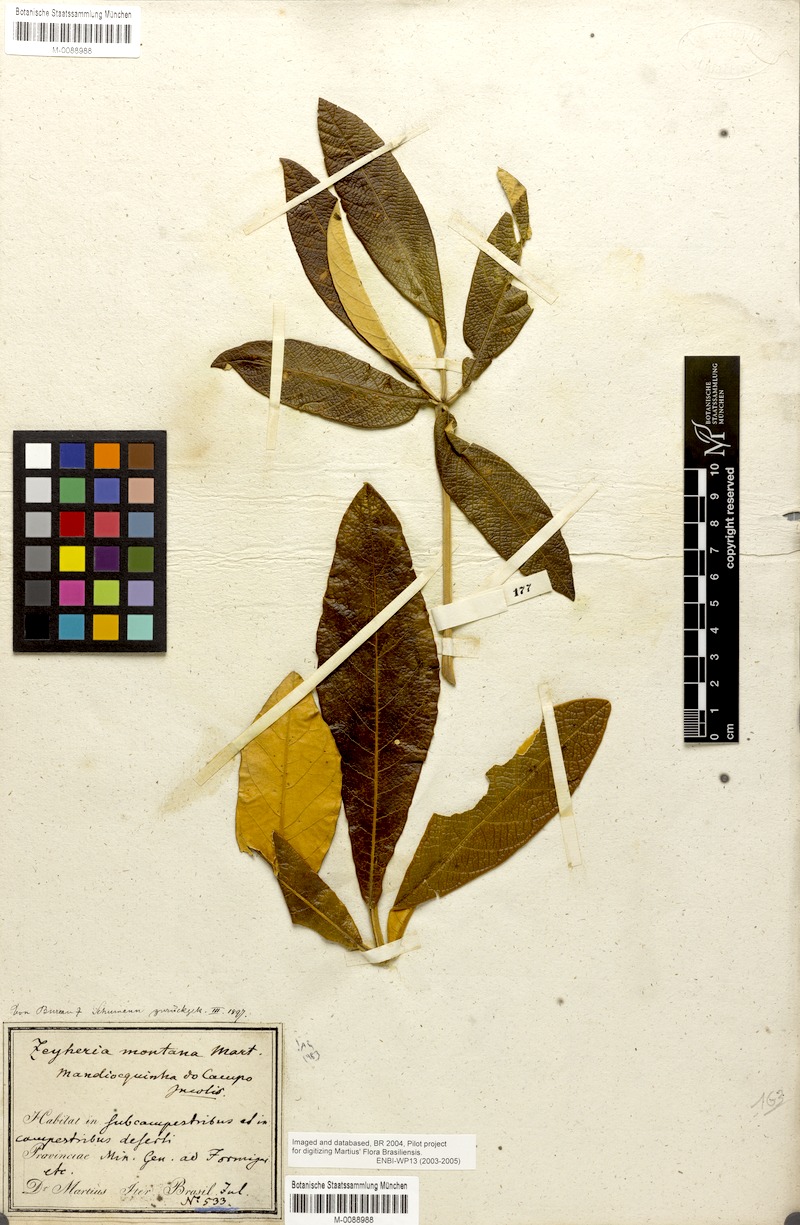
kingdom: Plantae
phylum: Tracheophyta
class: Magnoliopsida
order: Lamiales
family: Bignoniaceae
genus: Zeyheria
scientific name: Zeyheria montana
